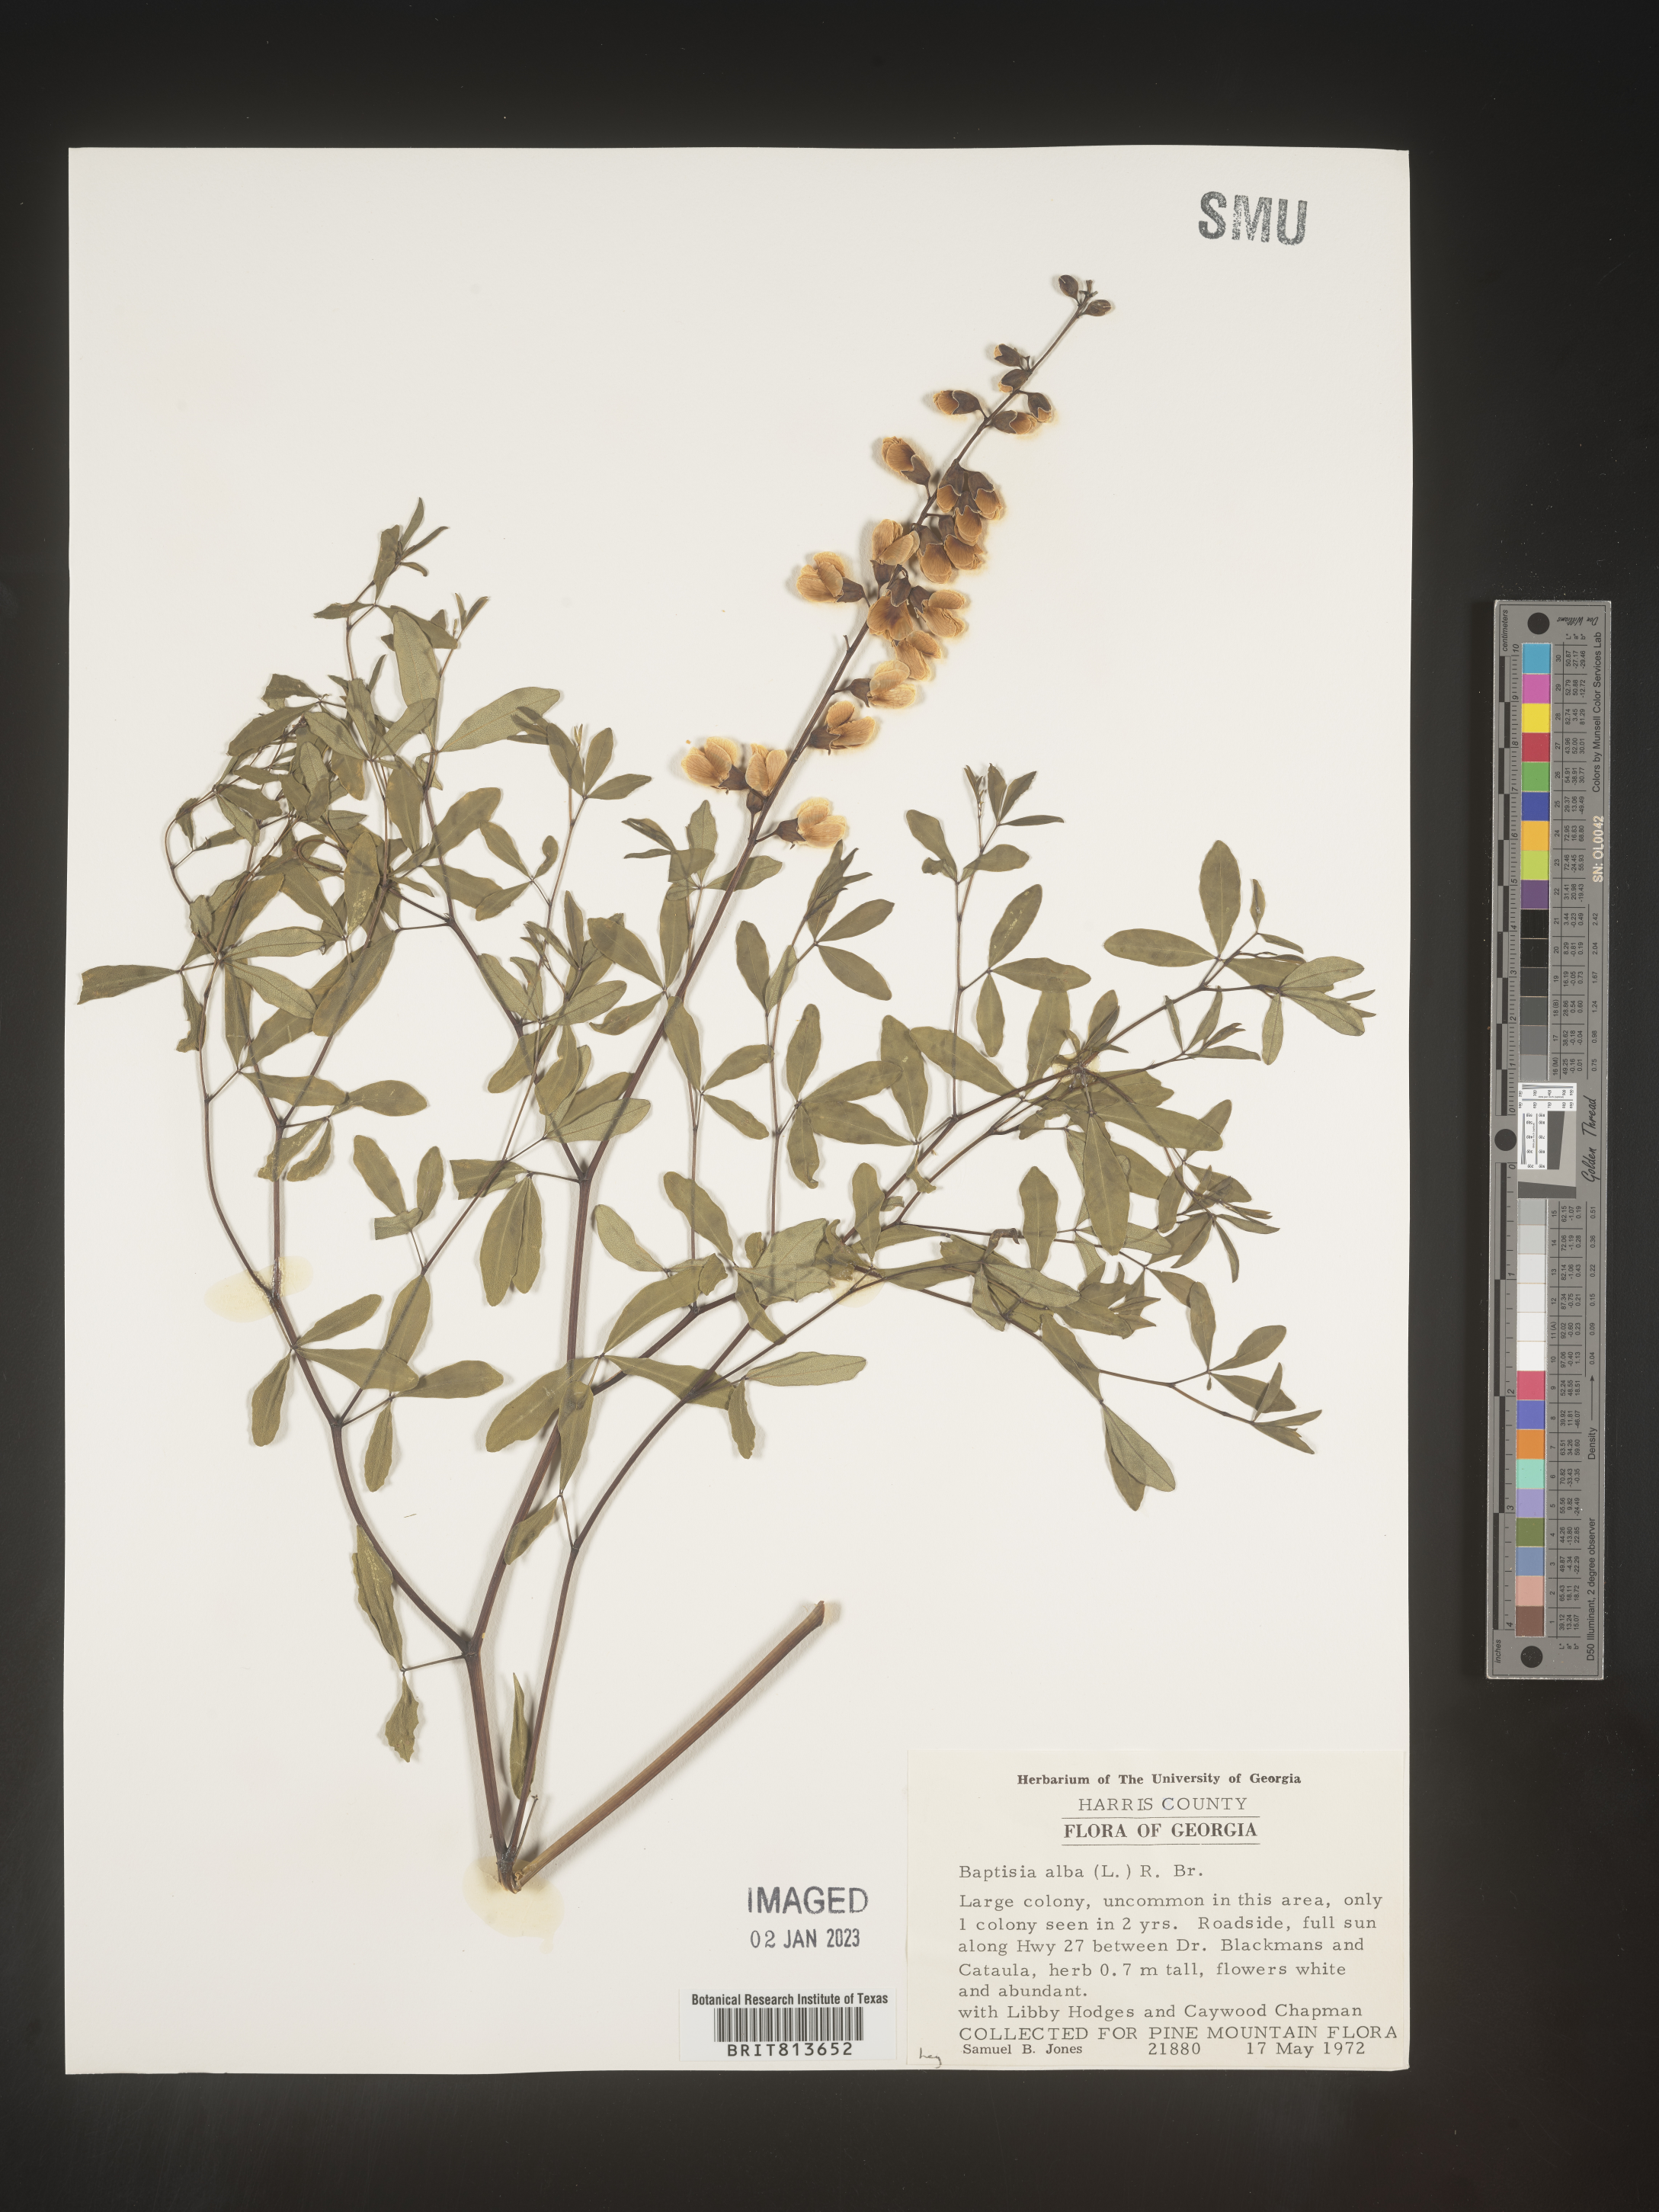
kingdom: Plantae
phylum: Tracheophyta
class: Magnoliopsida
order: Fabales
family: Fabaceae
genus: Baptisia
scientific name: Baptisia alba
